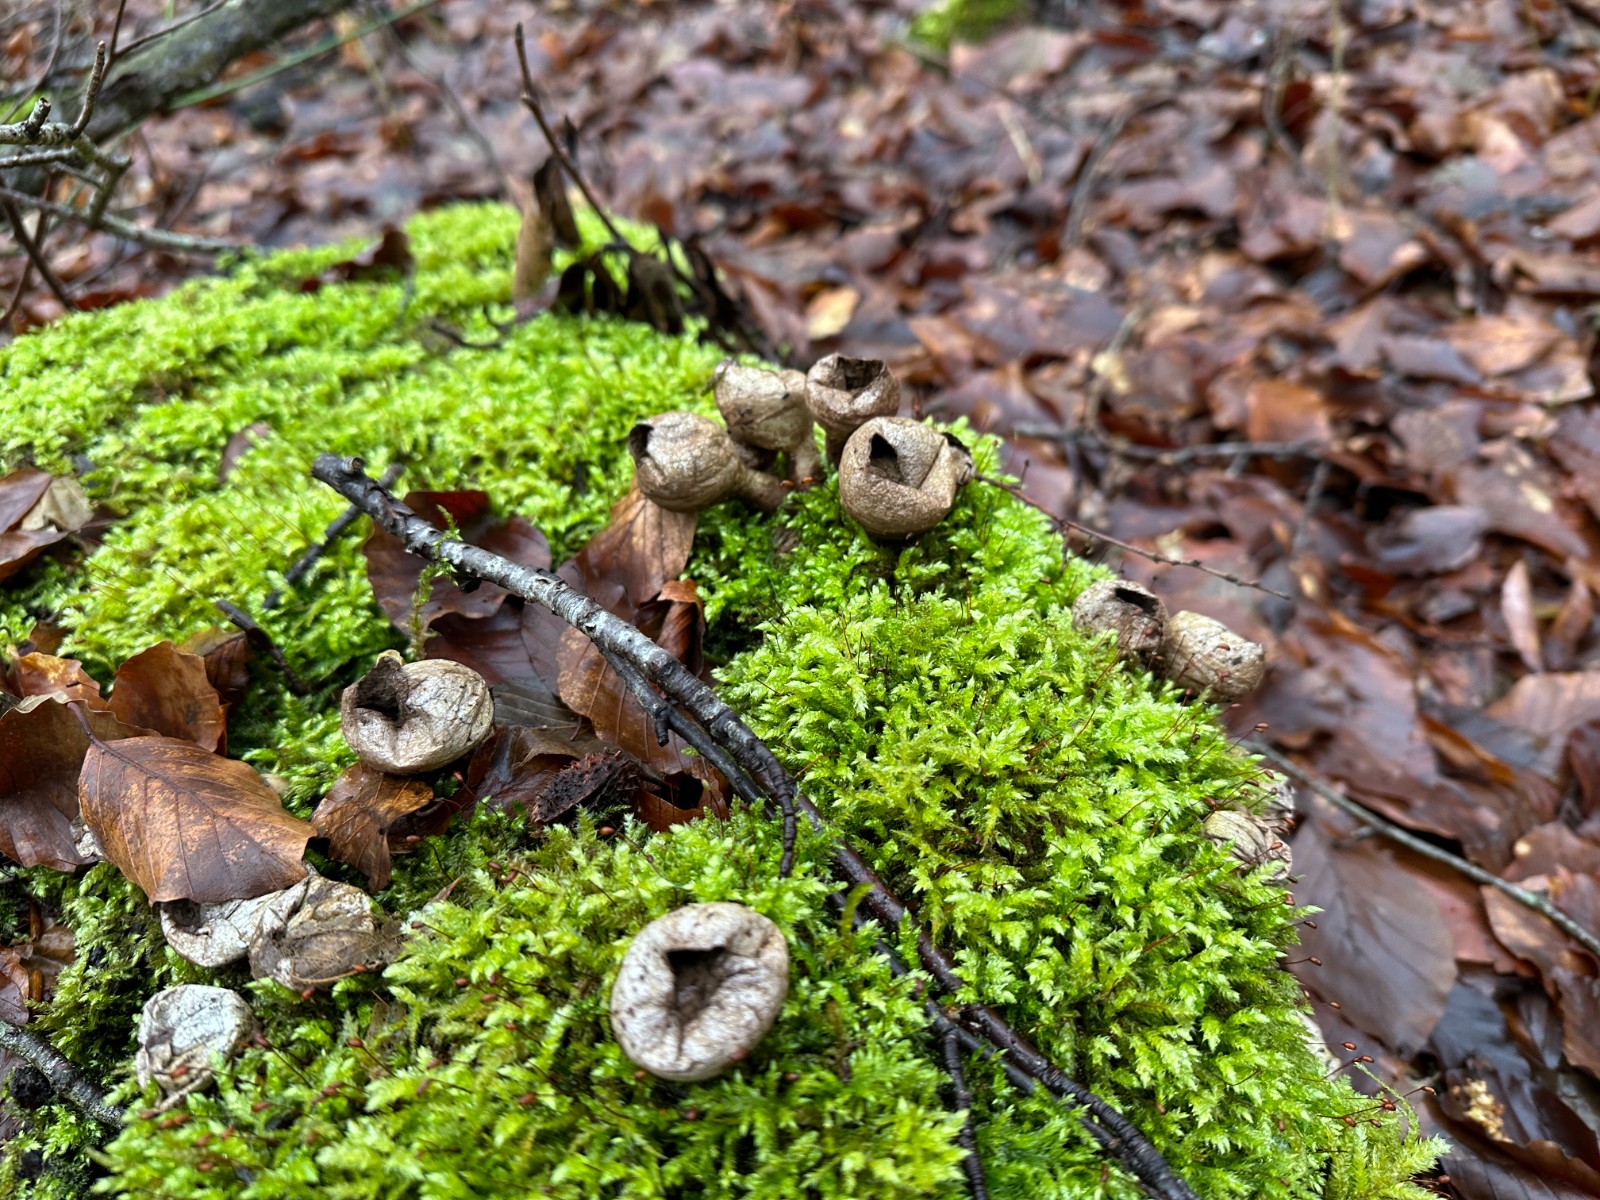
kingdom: Fungi
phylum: Basidiomycota
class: Agaricomycetes
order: Agaricales
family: Lycoperdaceae
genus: Apioperdon
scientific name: Apioperdon pyriforme
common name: pære-støvbold
